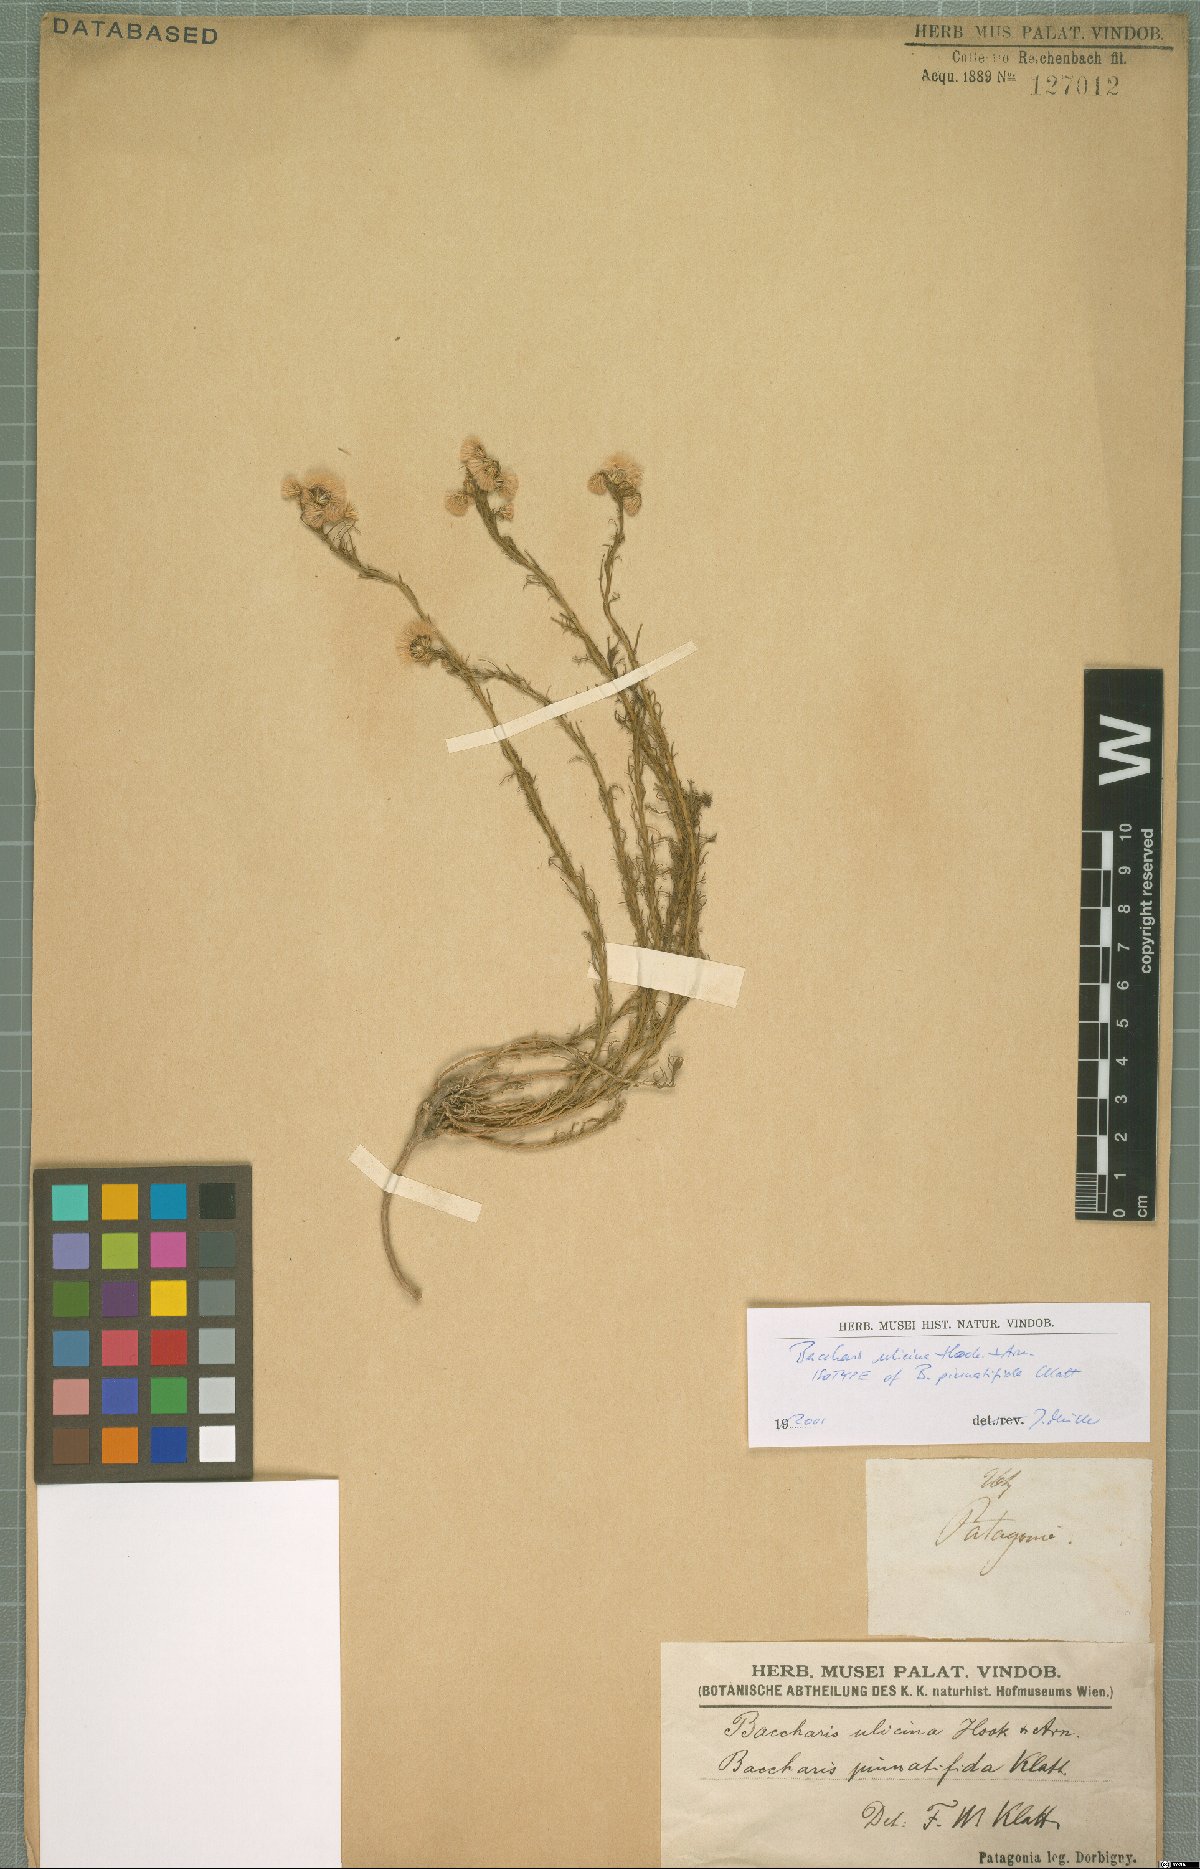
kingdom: Plantae
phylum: Tracheophyta
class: Magnoliopsida
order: Asterales
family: Asteraceae
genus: Baccharis
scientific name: Baccharis ulicina
